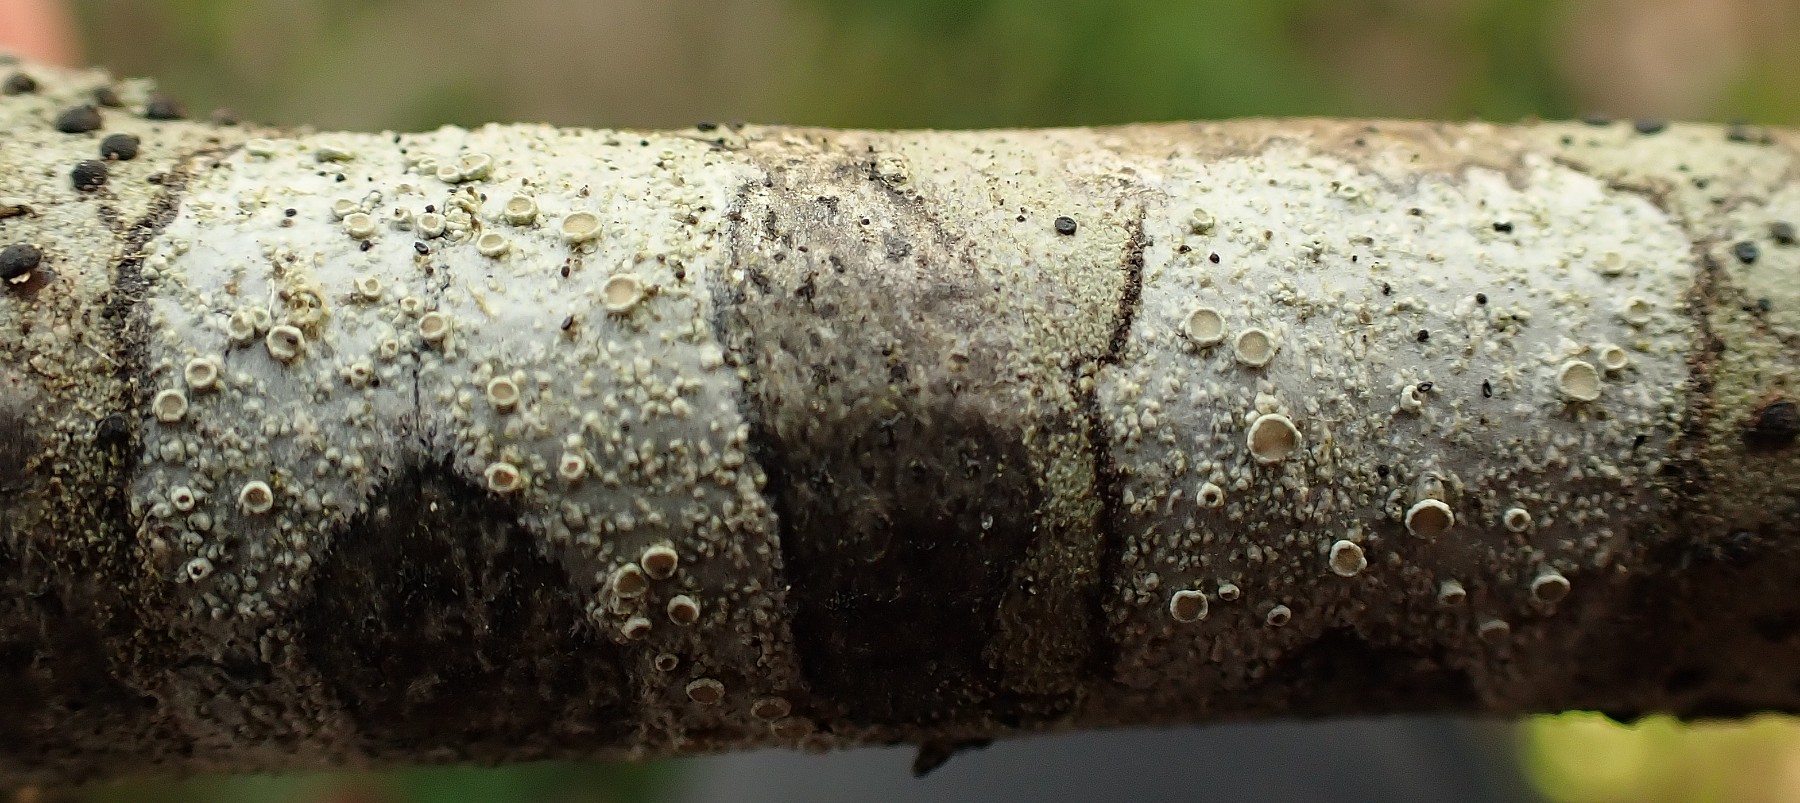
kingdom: Fungi
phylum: Ascomycota
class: Lecanoromycetes
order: Lecanorales
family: Lecanoraceae
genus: Lecanora
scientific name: Lecanora chlarotera
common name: brun kantskivelav
